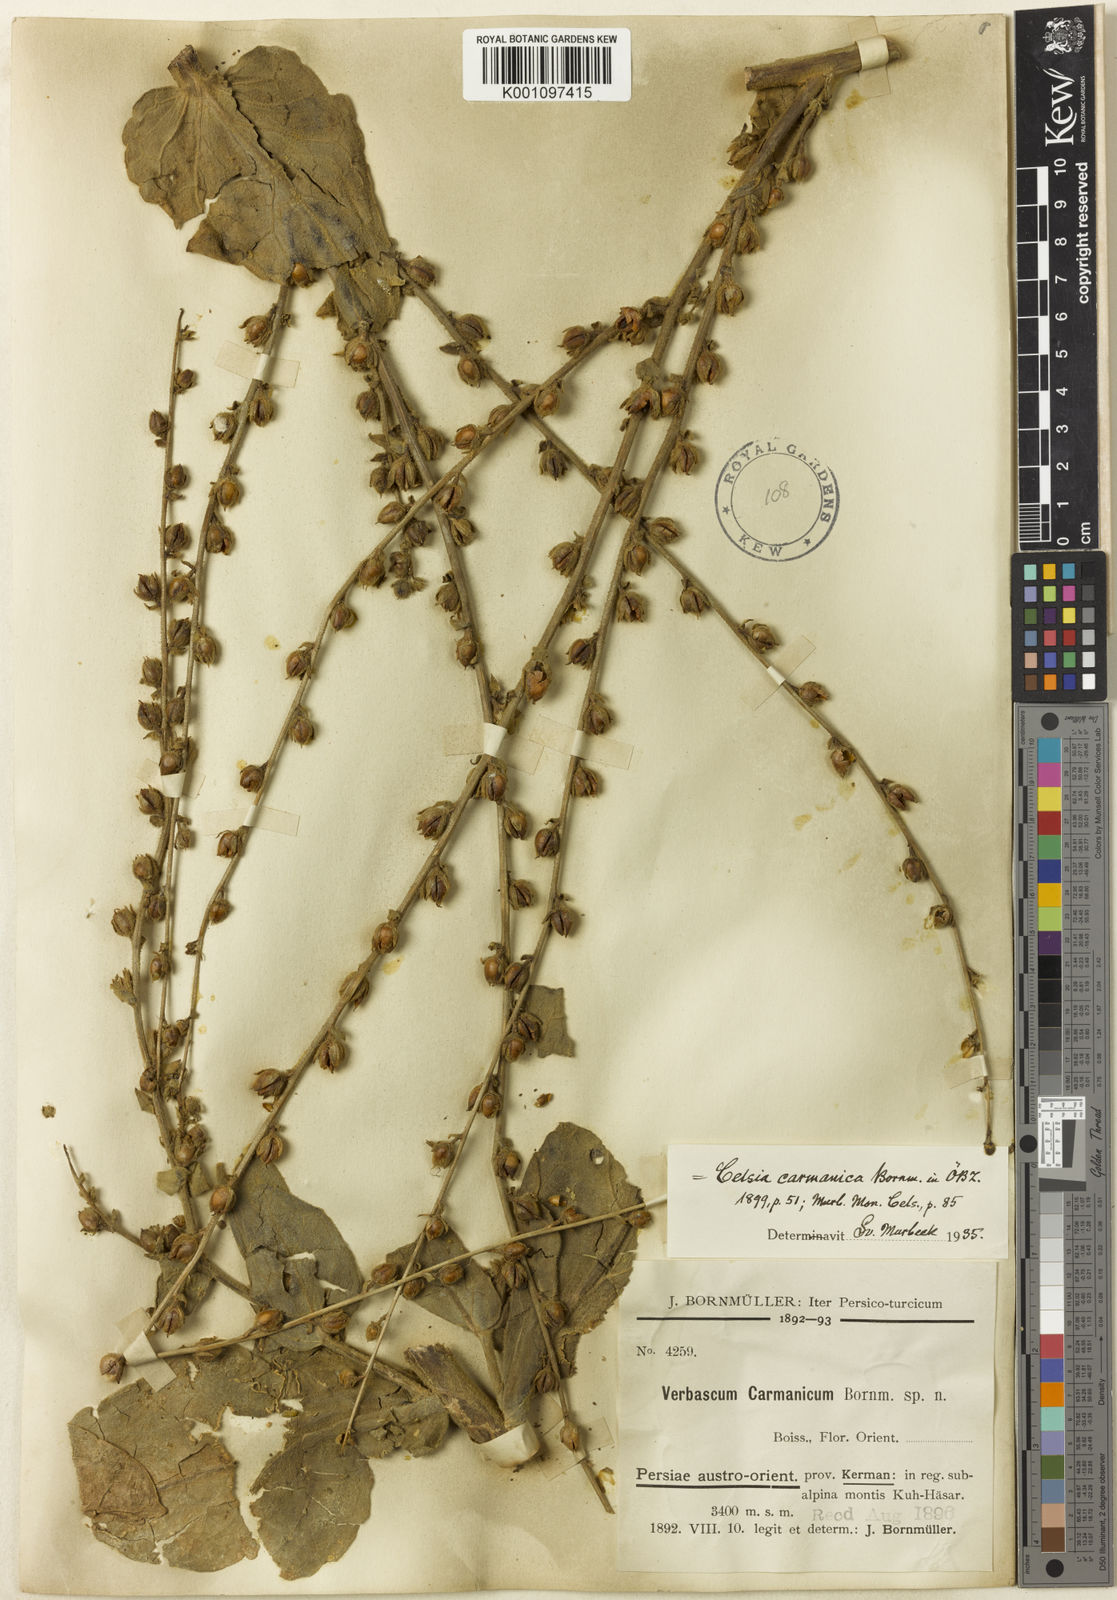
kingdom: Plantae
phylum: Tracheophyta
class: Magnoliopsida
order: Lamiales
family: Scrophulariaceae
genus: Verbascum
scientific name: Verbascum carmanicum
